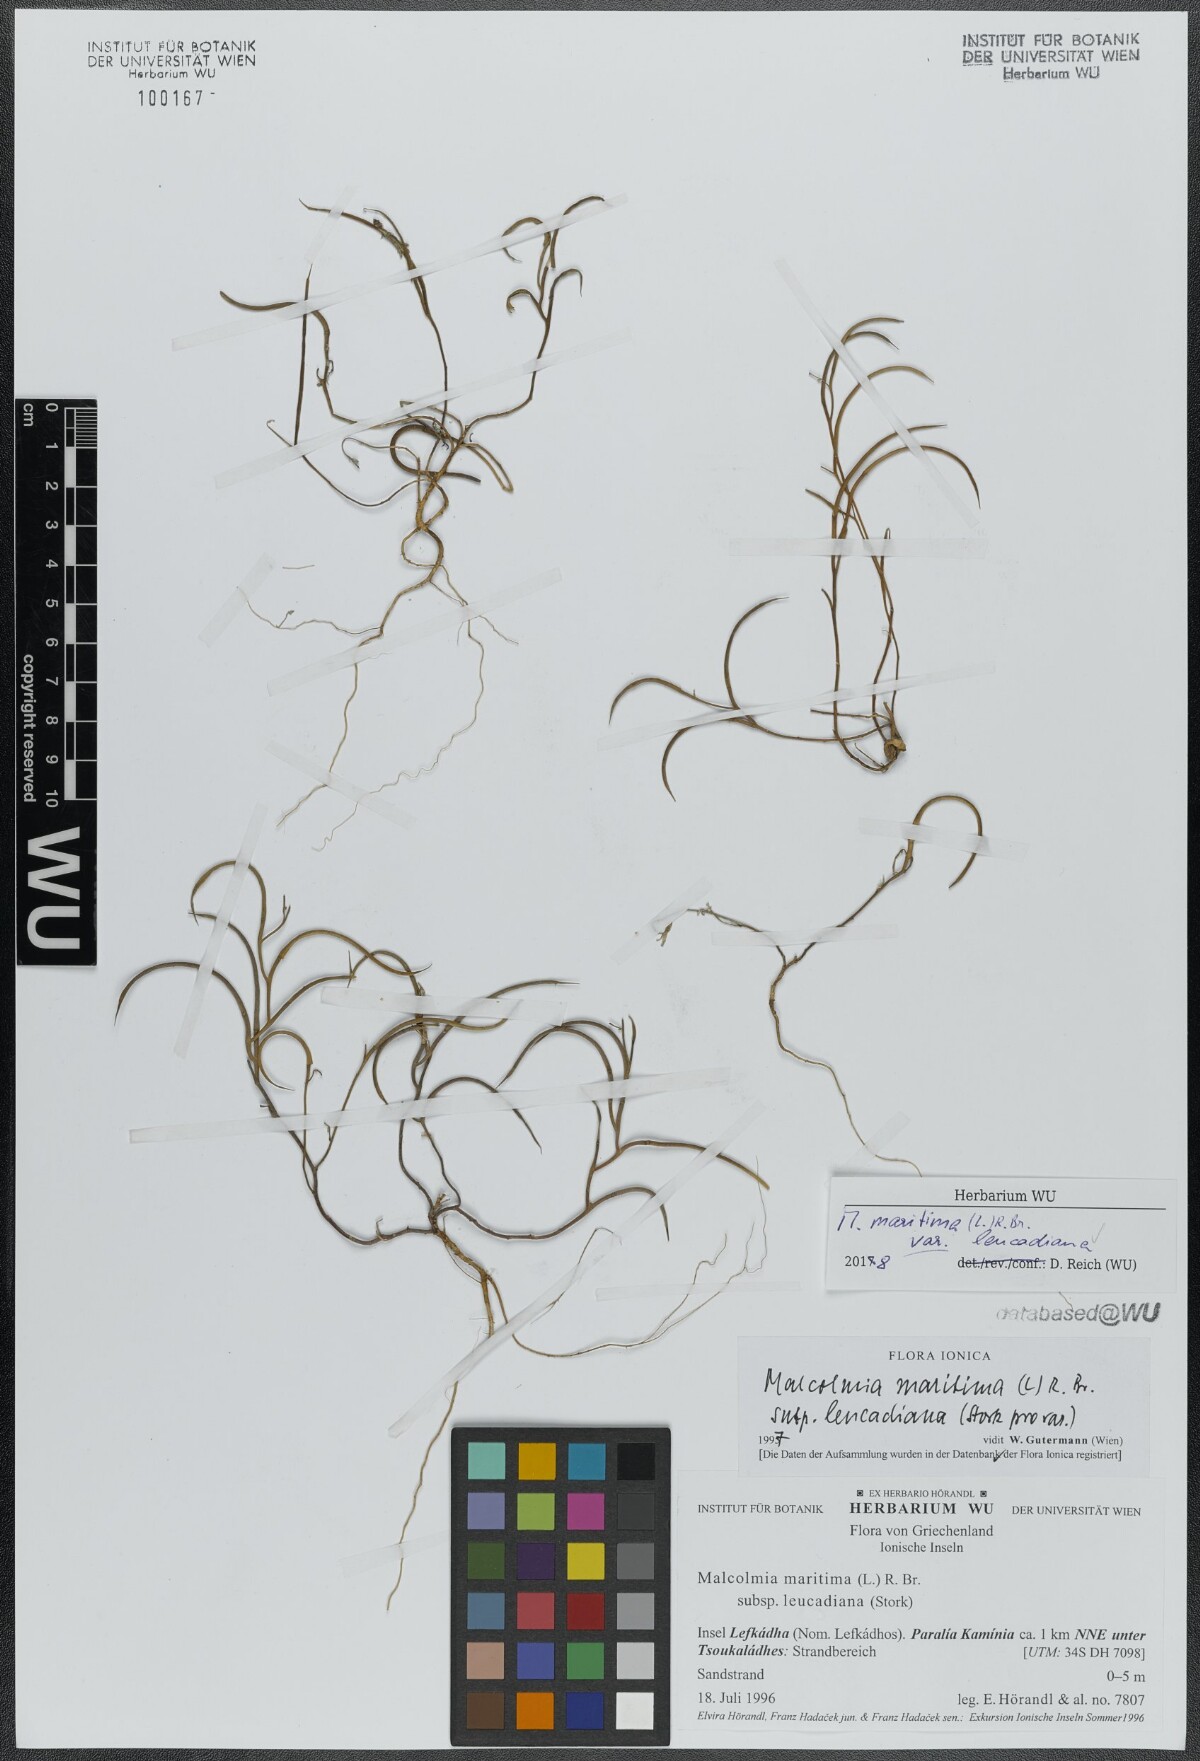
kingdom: Plantae
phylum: Tracheophyta
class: Magnoliopsida
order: Brassicales
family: Brassicaceae
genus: Malcolmia
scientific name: Malcolmia maritima
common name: Virginia stock
